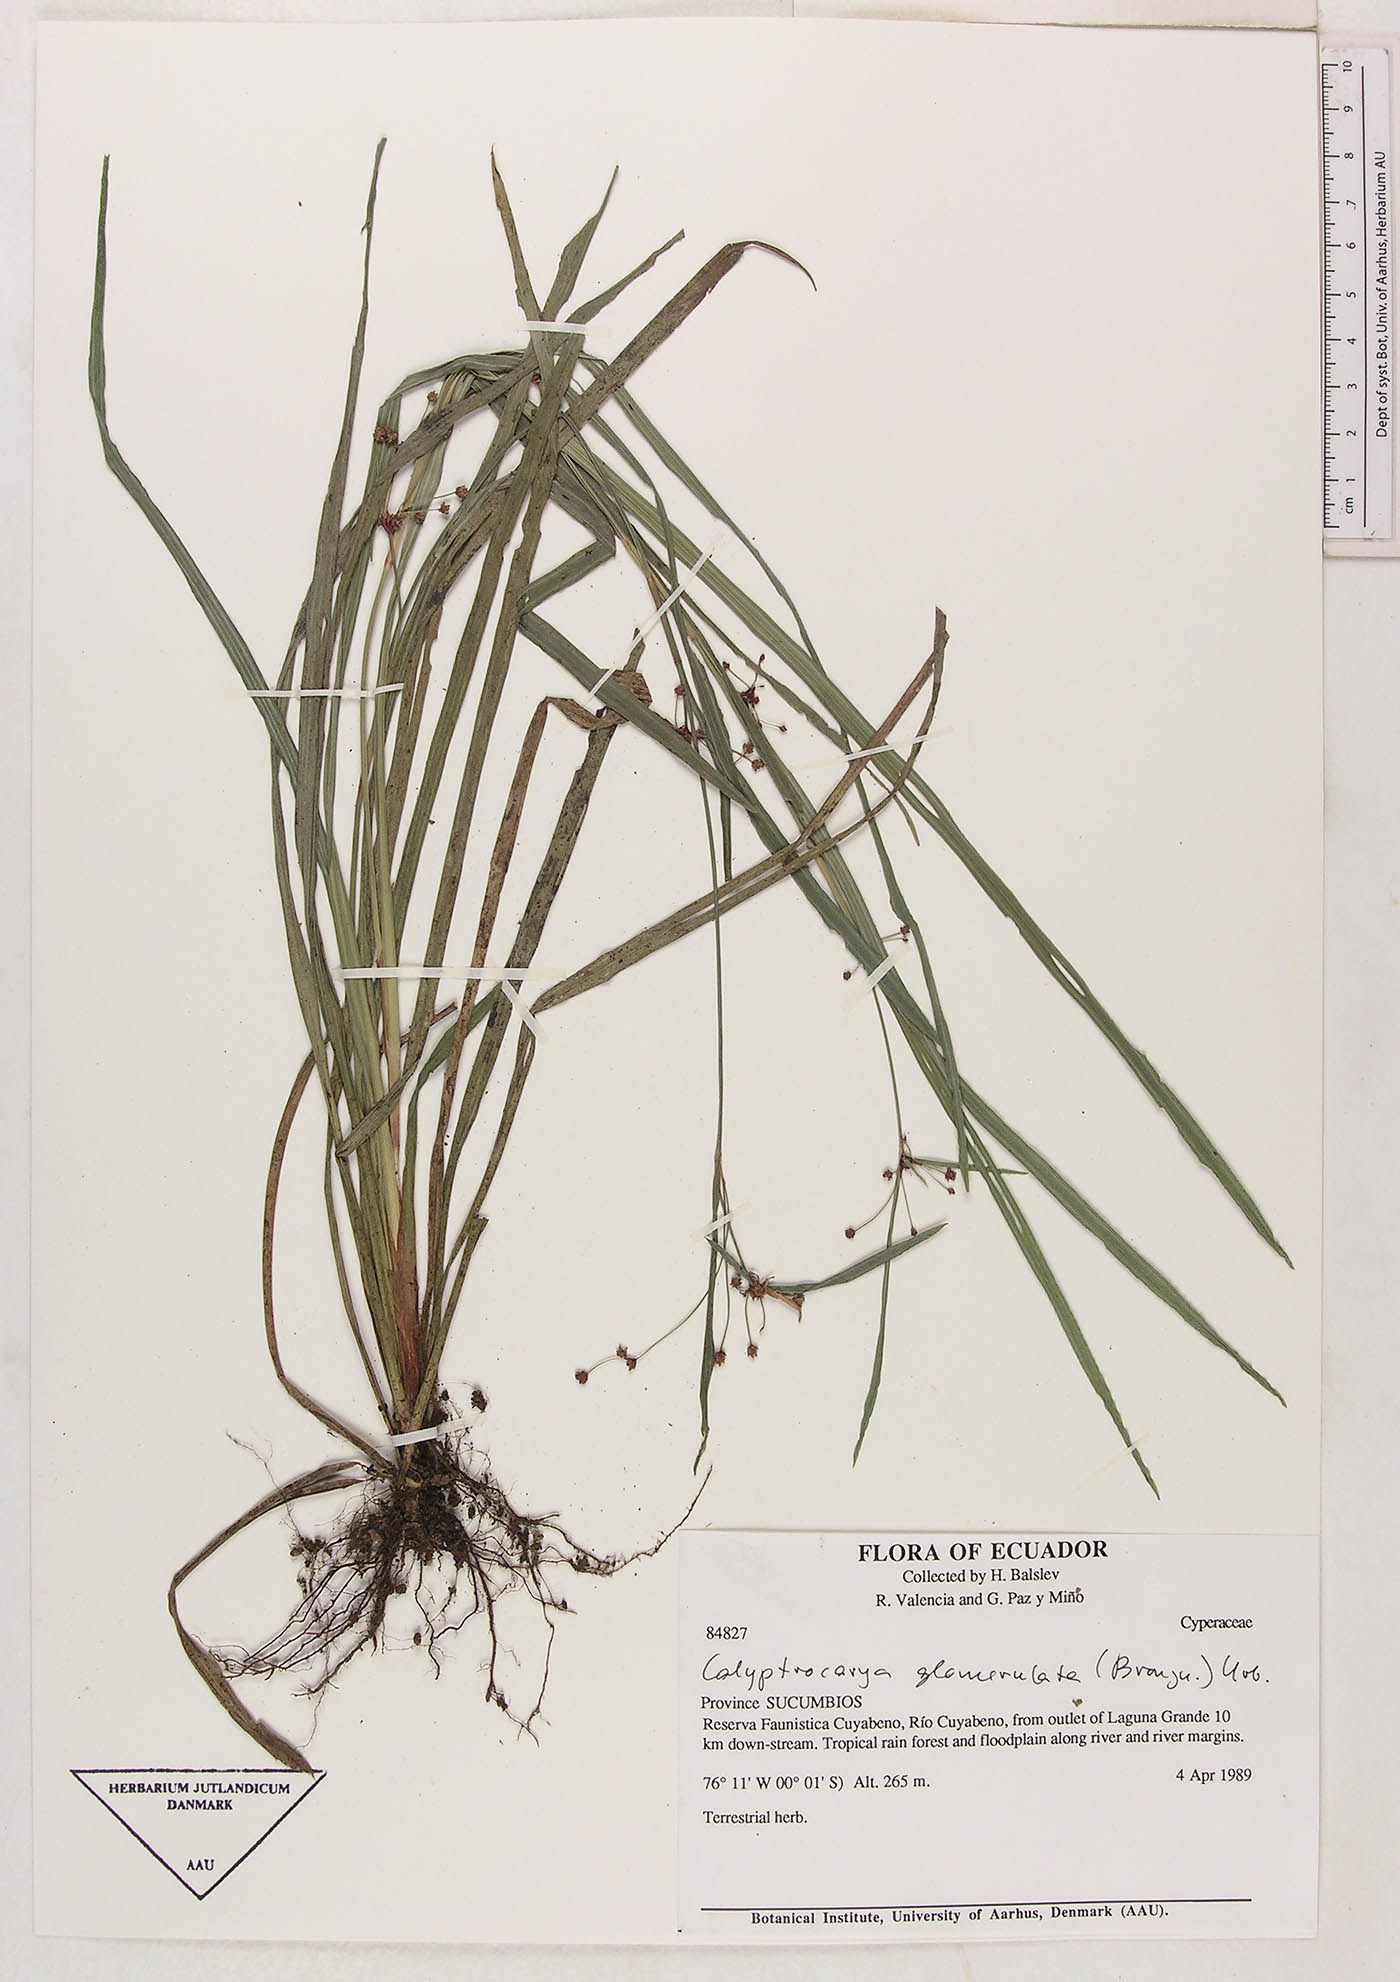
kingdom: Plantae
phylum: Tracheophyta
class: Liliopsida
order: Poales
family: Cyperaceae
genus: Calyptrocarya
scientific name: Calyptrocarya glomerulata
